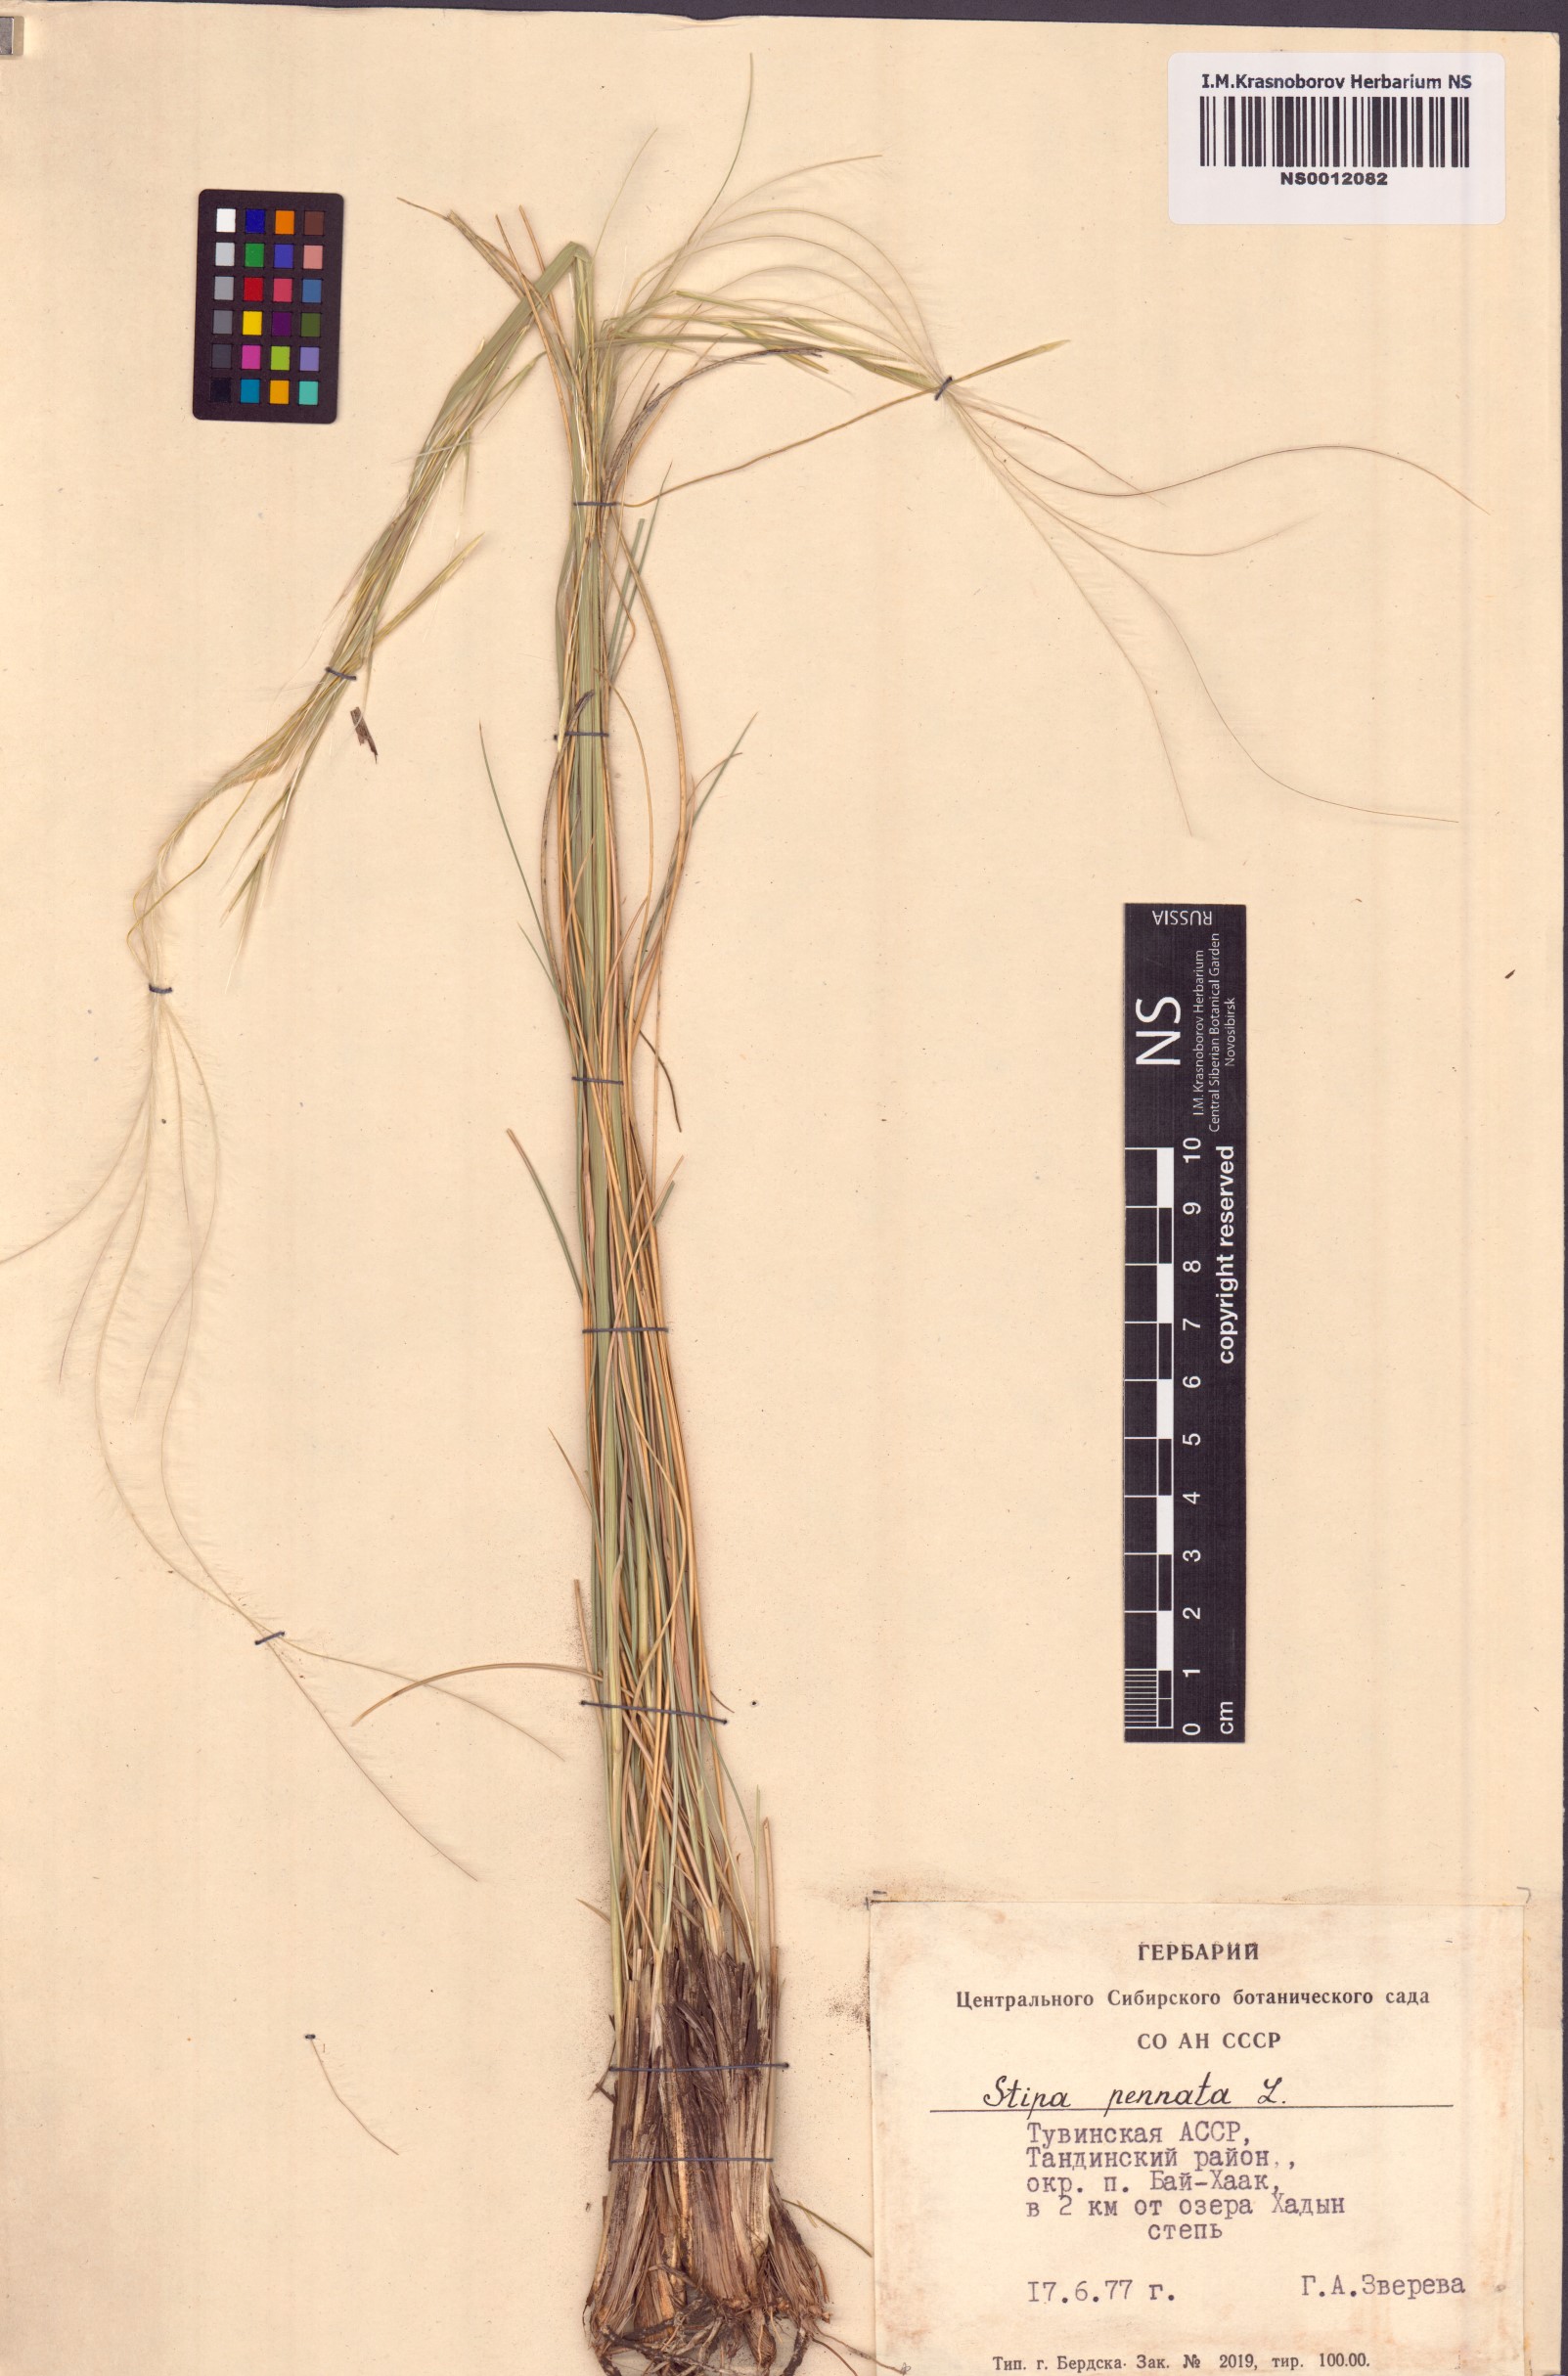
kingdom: Plantae
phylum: Tracheophyta
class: Liliopsida
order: Poales
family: Poaceae
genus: Stipa
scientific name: Stipa pennata
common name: European feather grass
